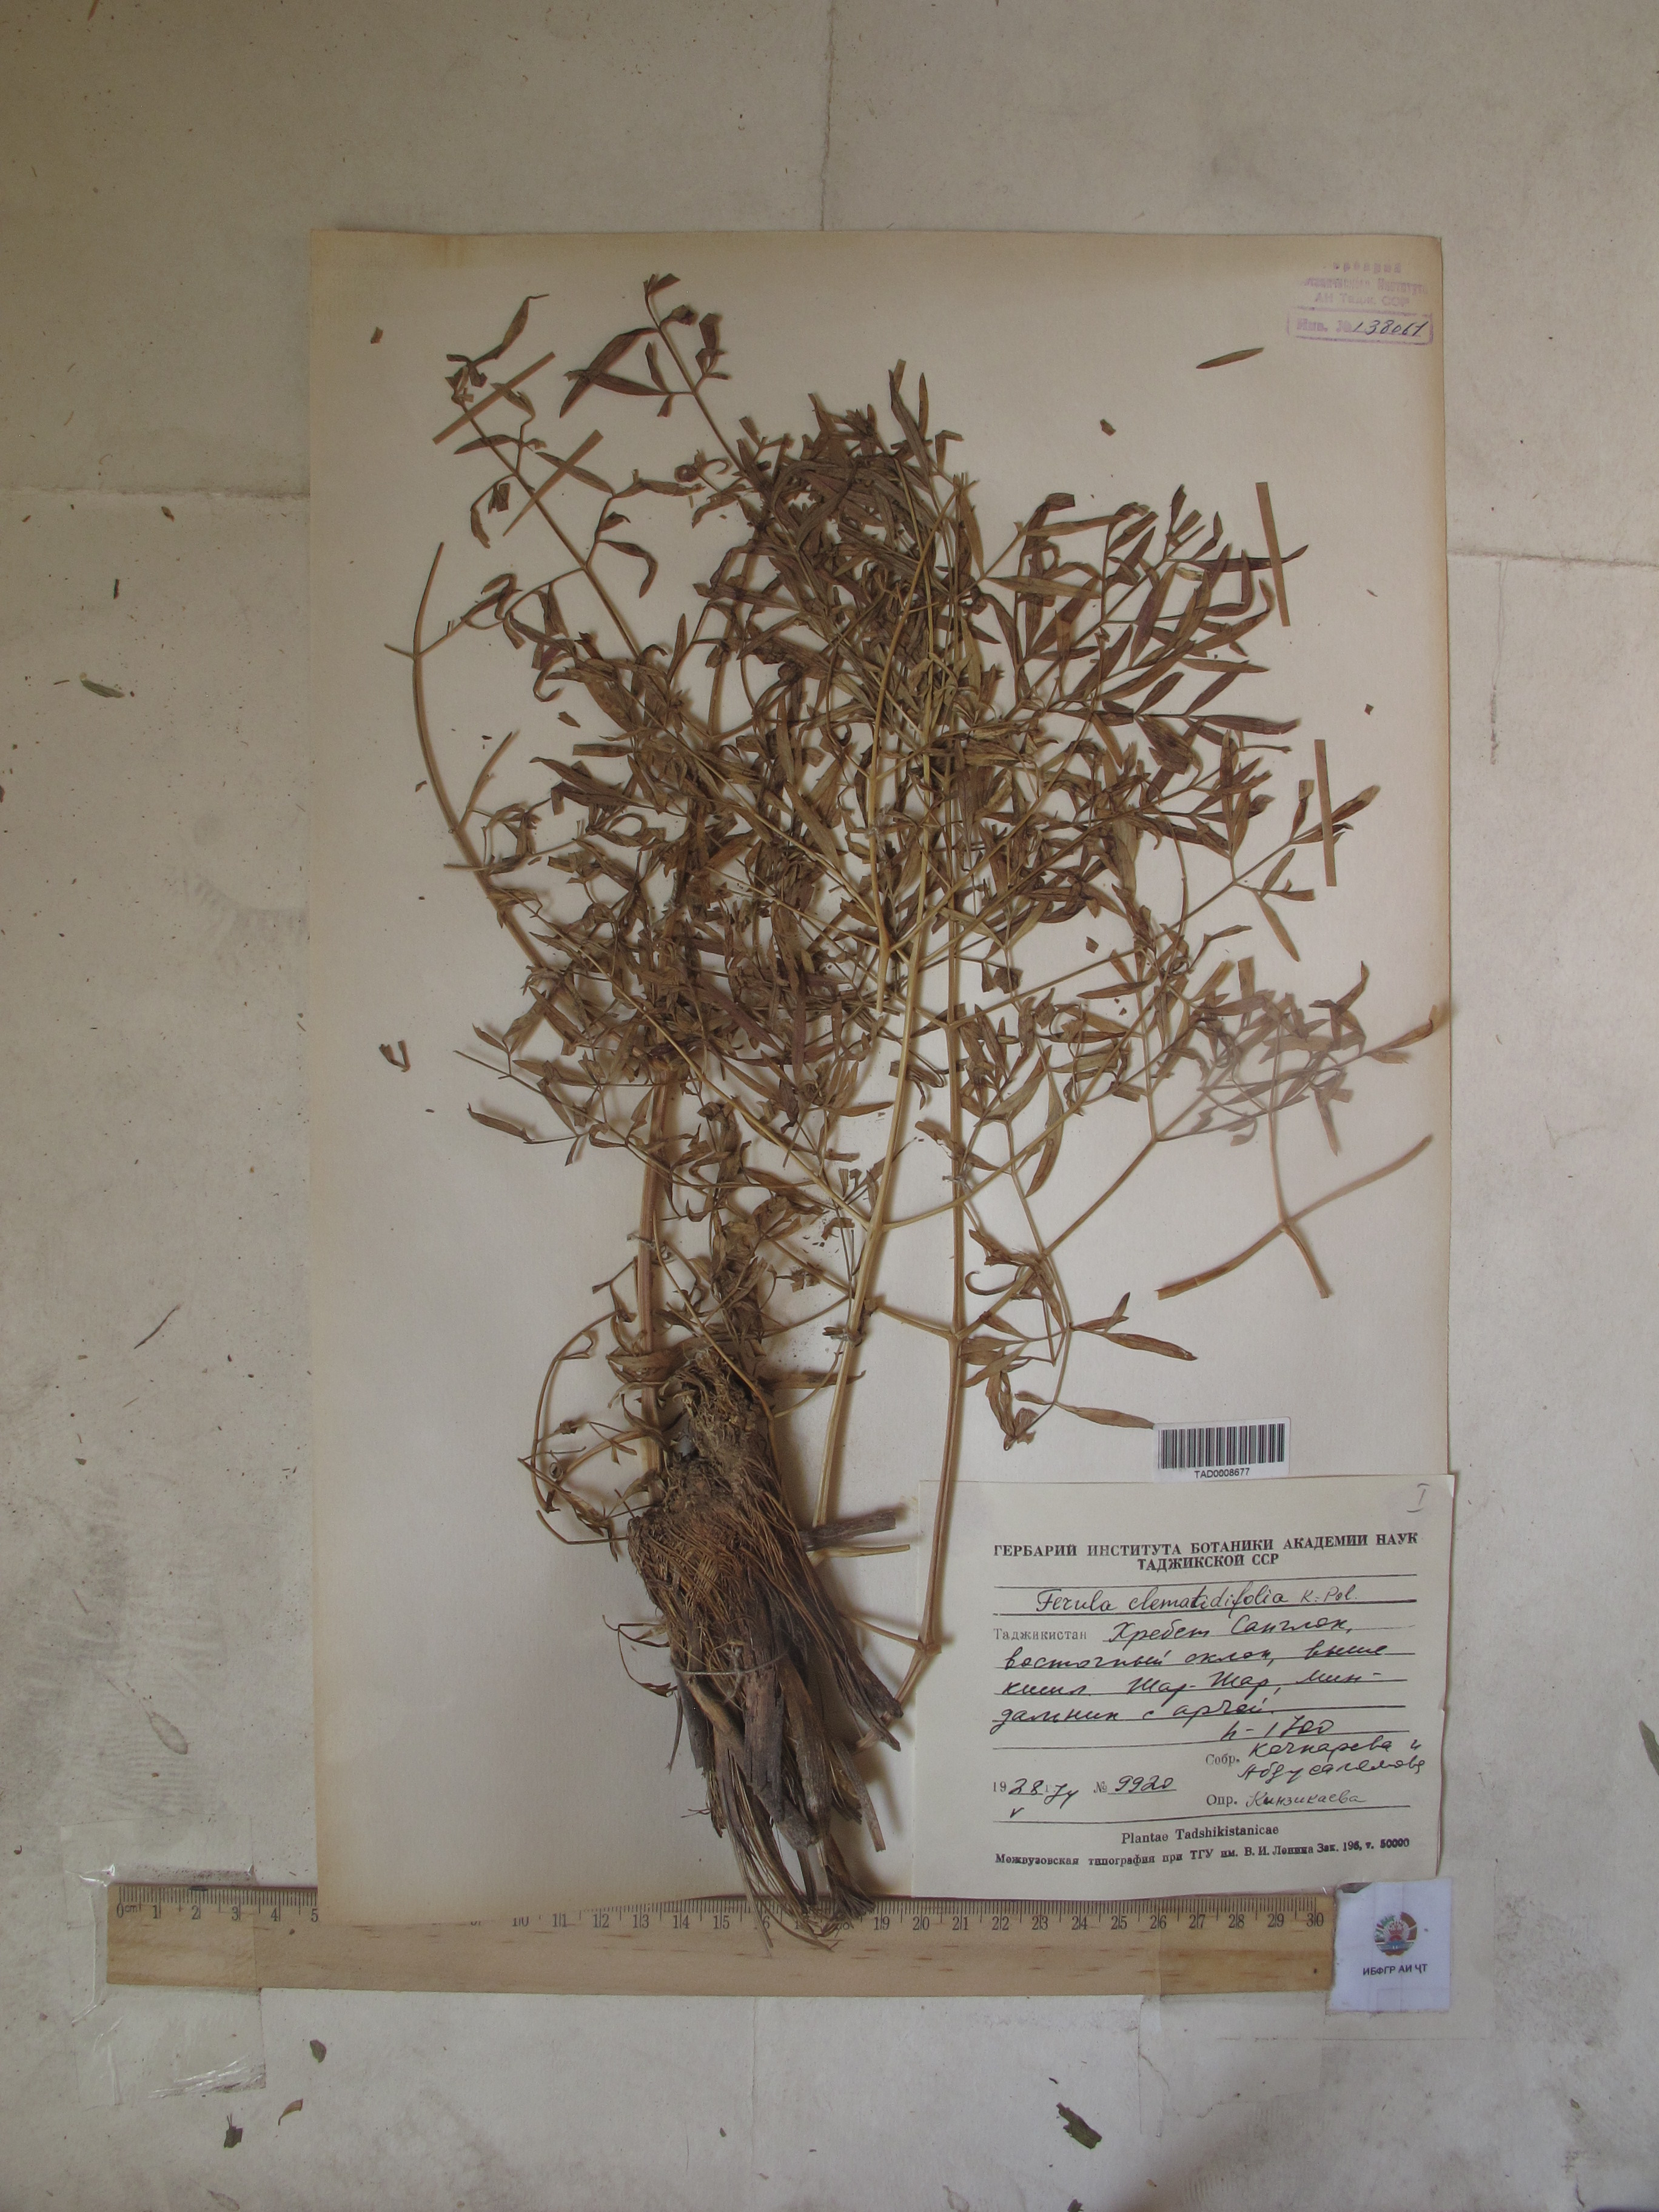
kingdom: Plantae
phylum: Tracheophyta
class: Magnoliopsida
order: Apiales
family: Apiaceae
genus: Ferula
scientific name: Ferula clematidifolia
